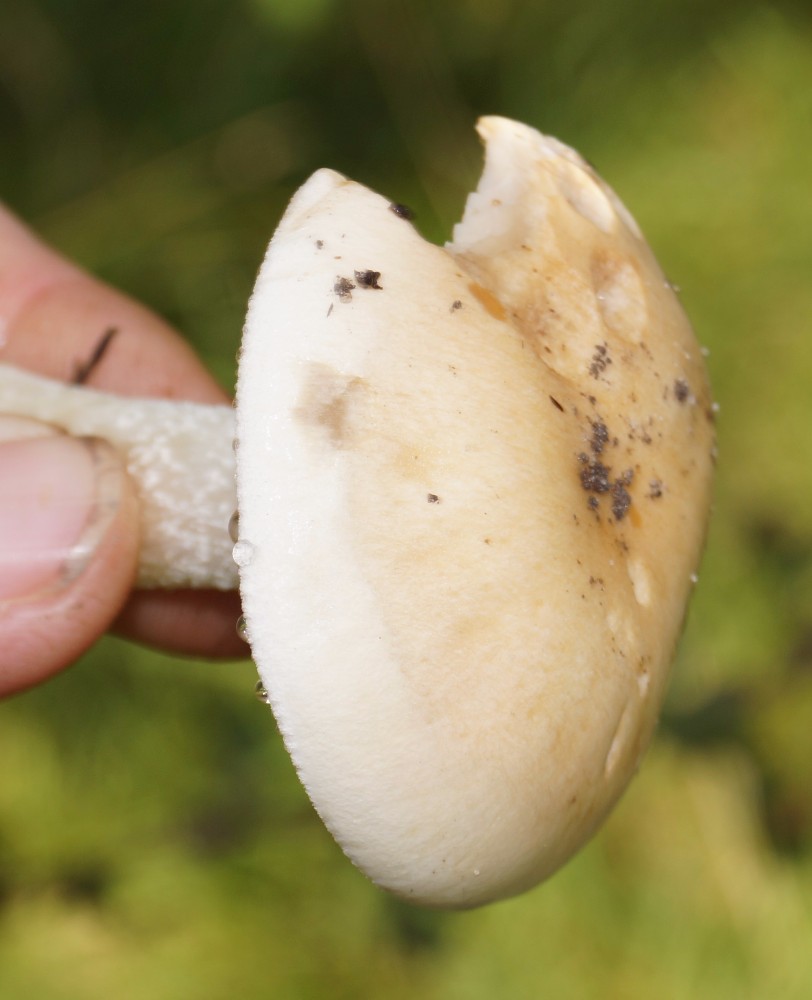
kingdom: Fungi
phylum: Basidiomycota
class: Agaricomycetes
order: Agaricales
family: Hymenogastraceae
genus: Hebeloma
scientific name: Hebeloma
